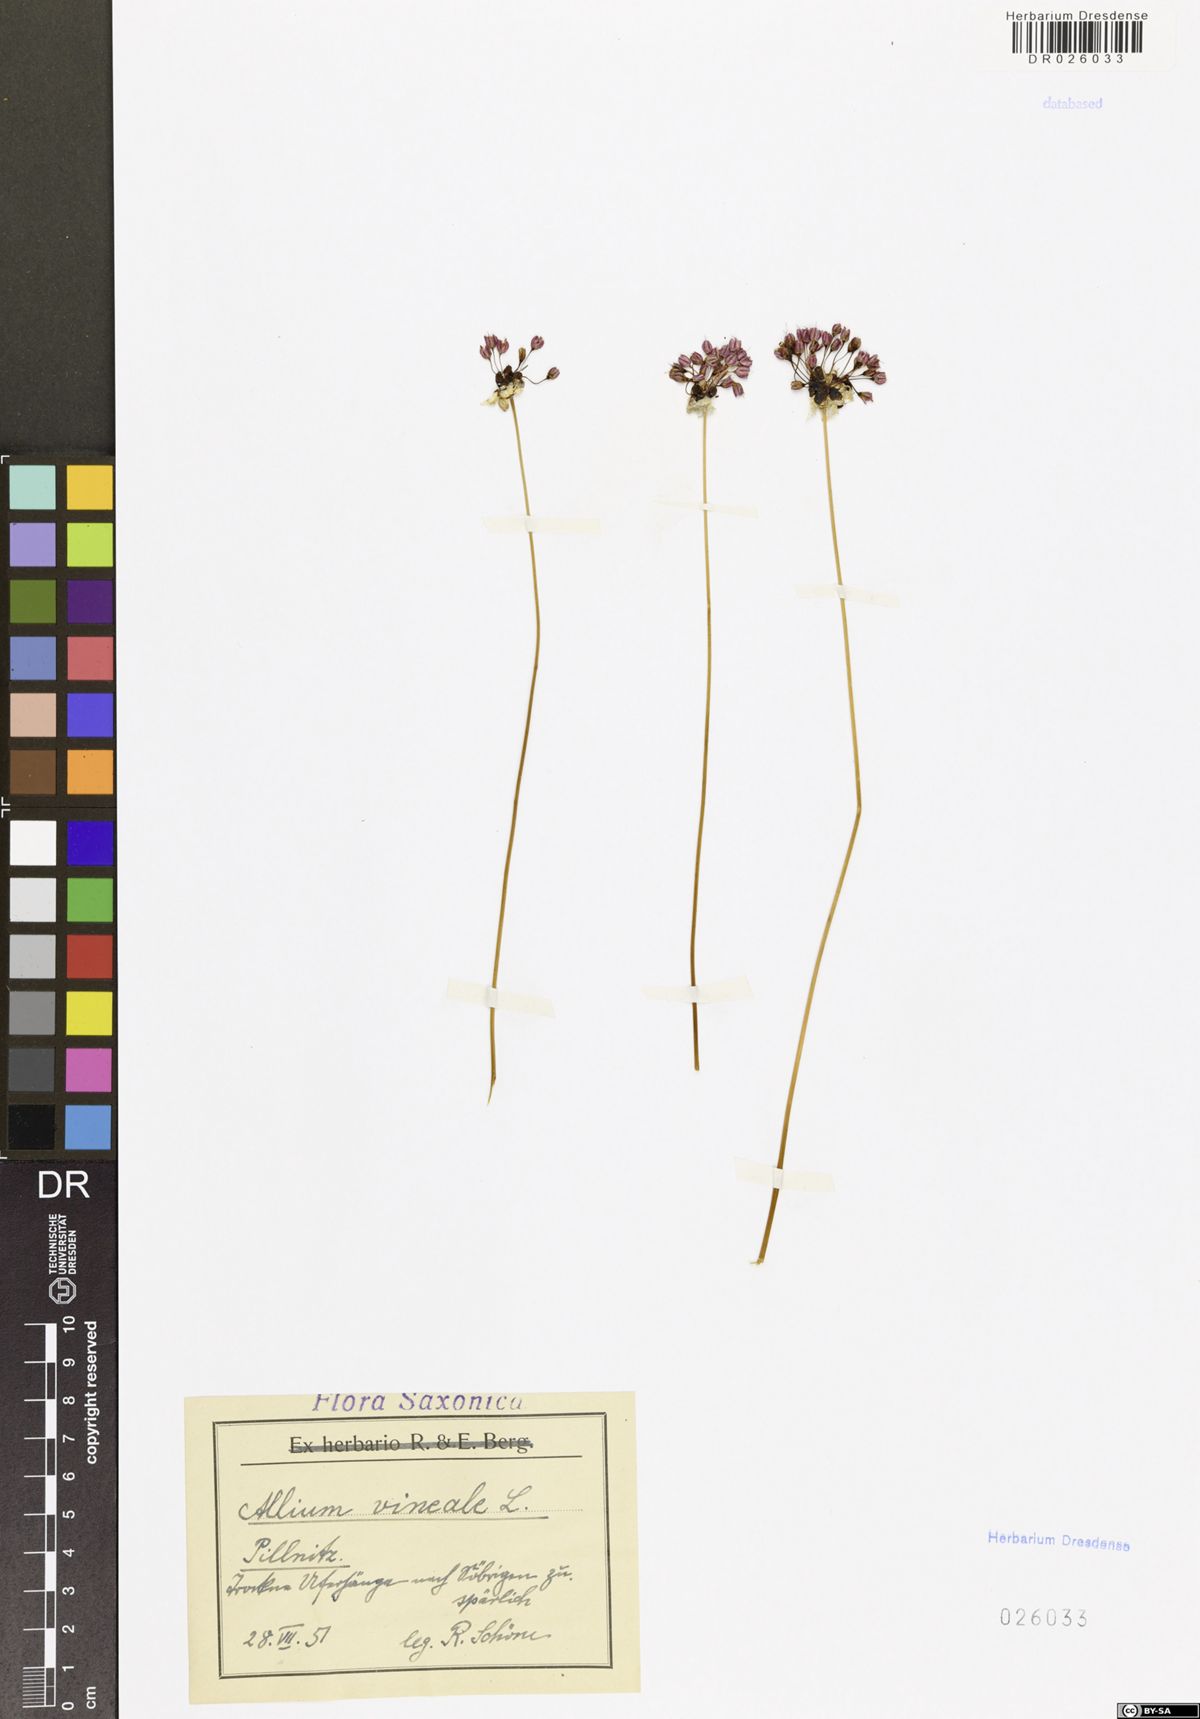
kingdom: Plantae
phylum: Tracheophyta
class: Liliopsida
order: Asparagales
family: Amaryllidaceae
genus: Allium
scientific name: Allium vineale
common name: Crow garlic
